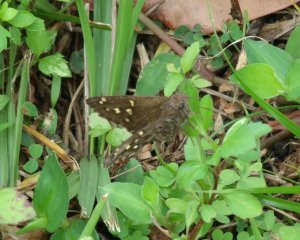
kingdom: Animalia
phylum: Arthropoda
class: Insecta
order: Lepidoptera
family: Hesperiidae
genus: Urbanus
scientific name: Urbanus dorantes
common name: Dorantes Longtail
